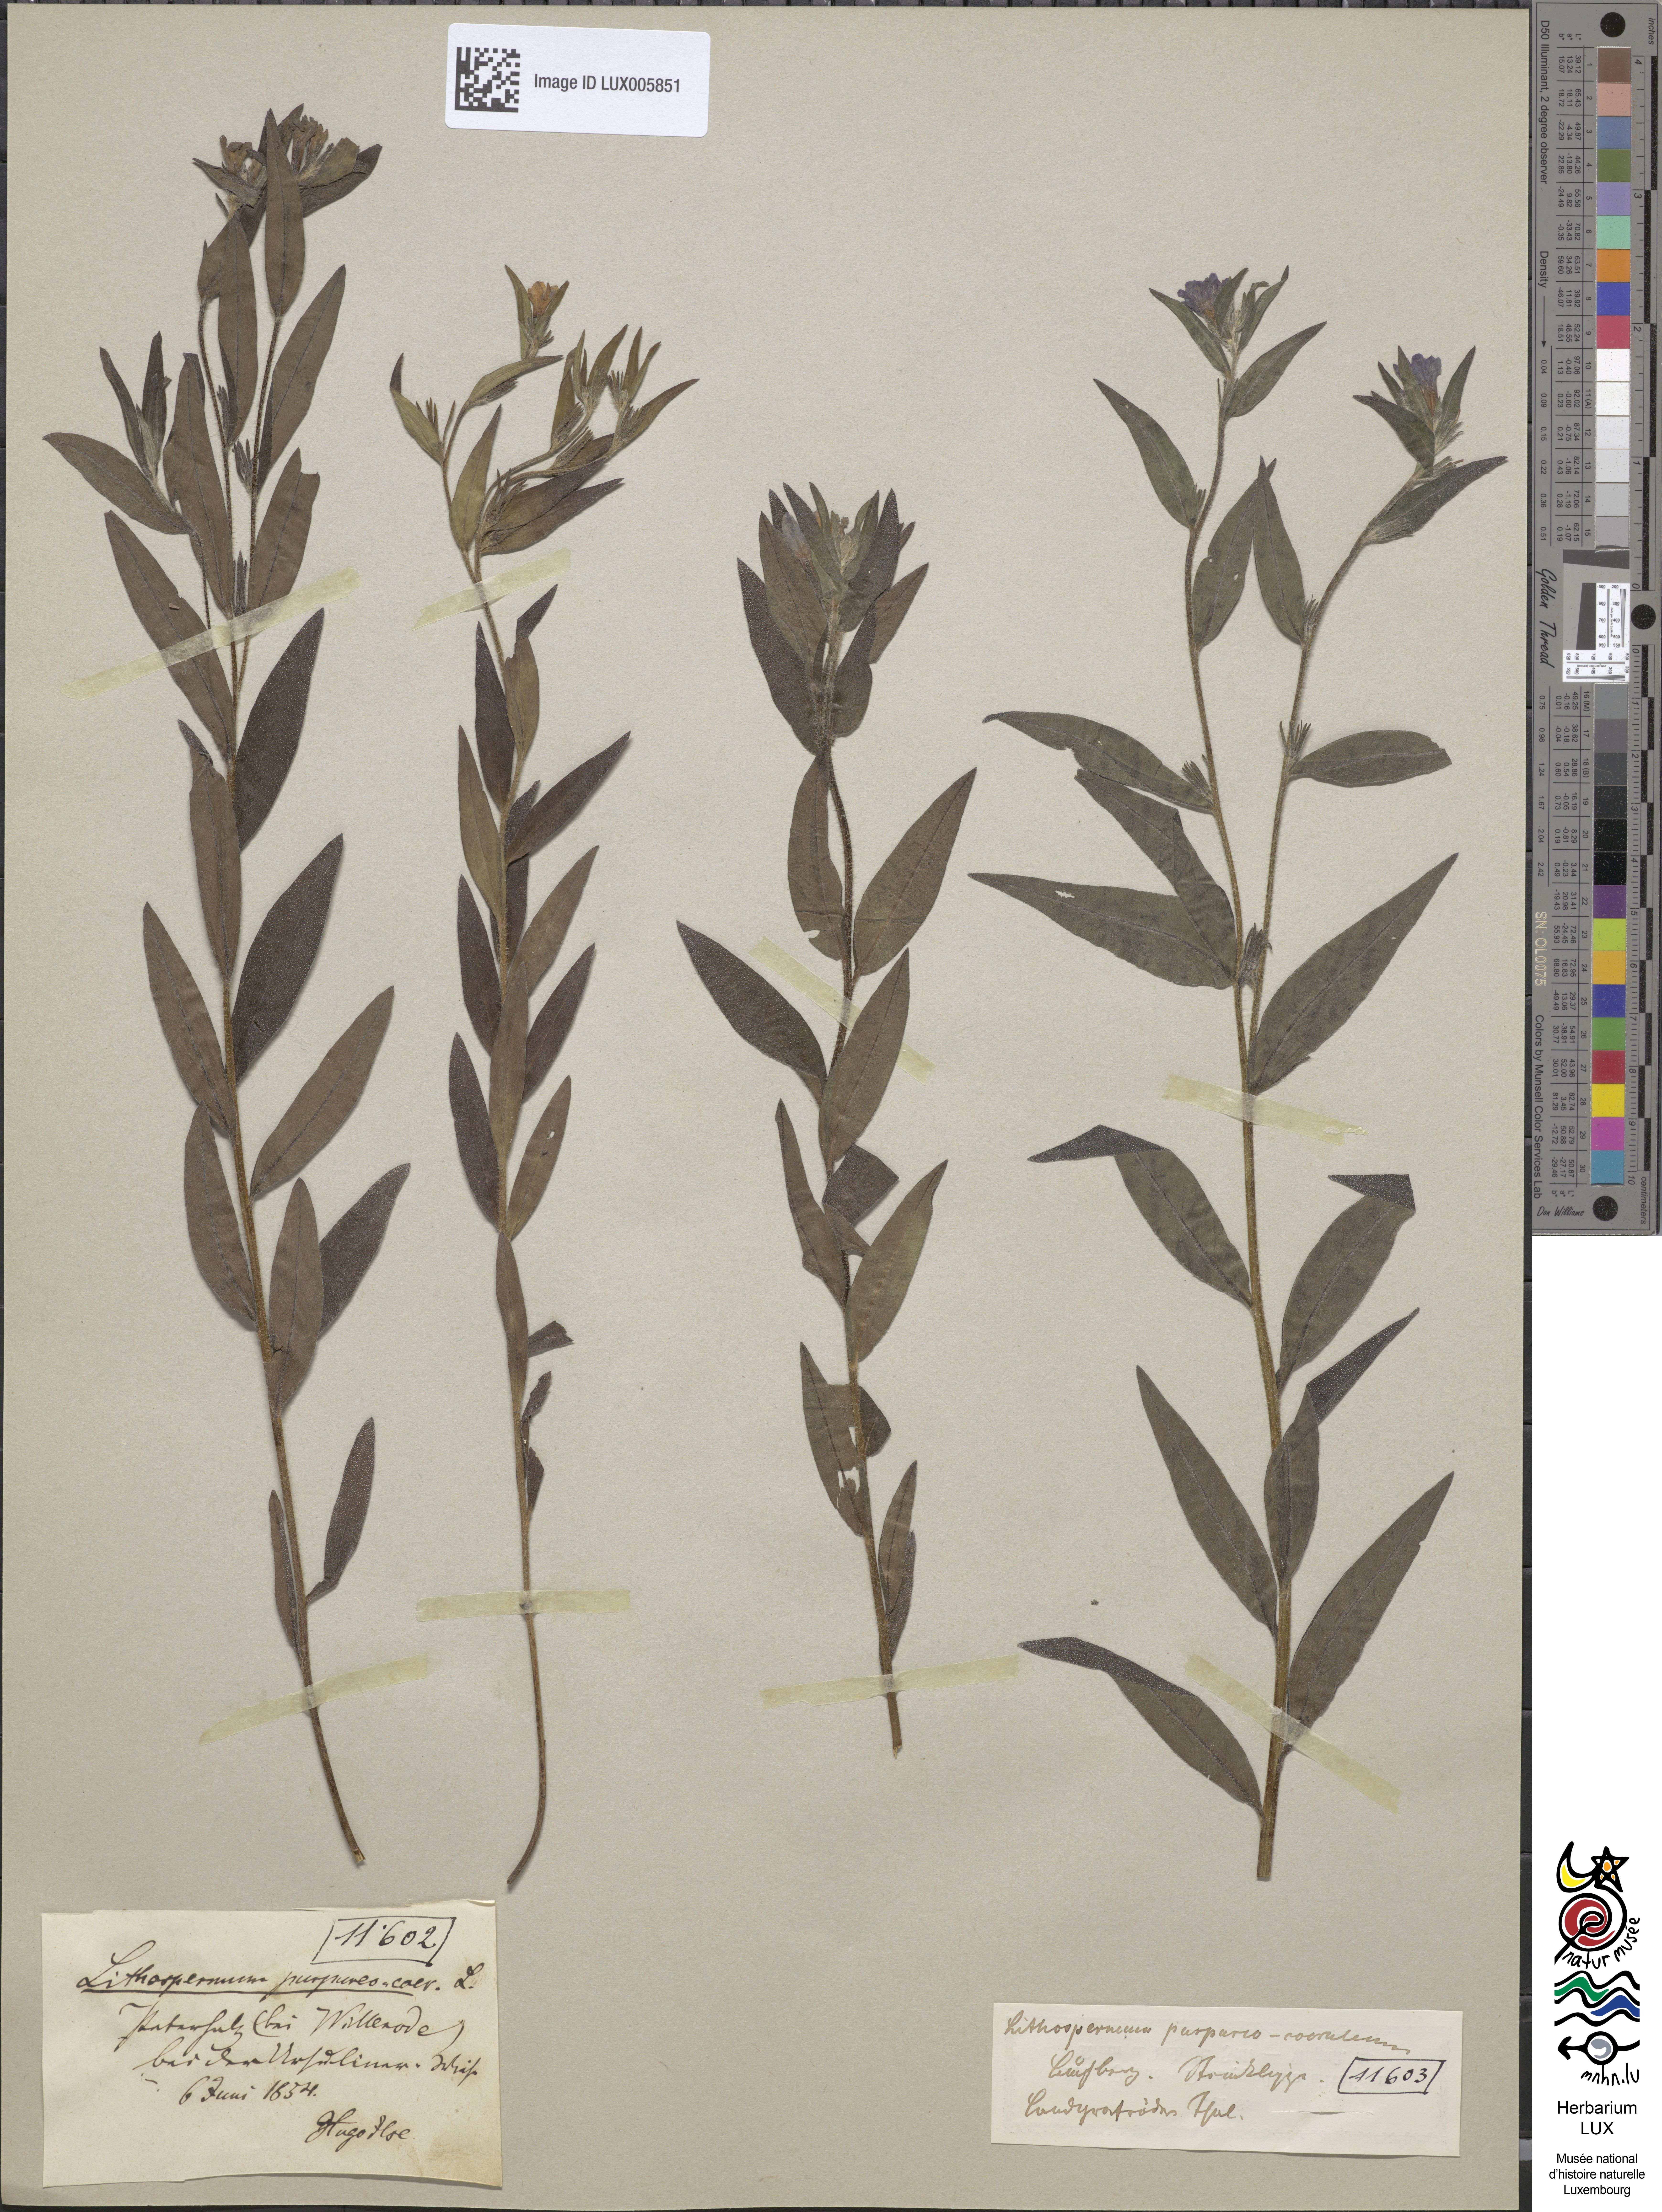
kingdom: Plantae
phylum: Tracheophyta
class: Magnoliopsida
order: Boraginales
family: Boraginaceae
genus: Aegonychon
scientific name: Aegonychon purpurocaeruleum
